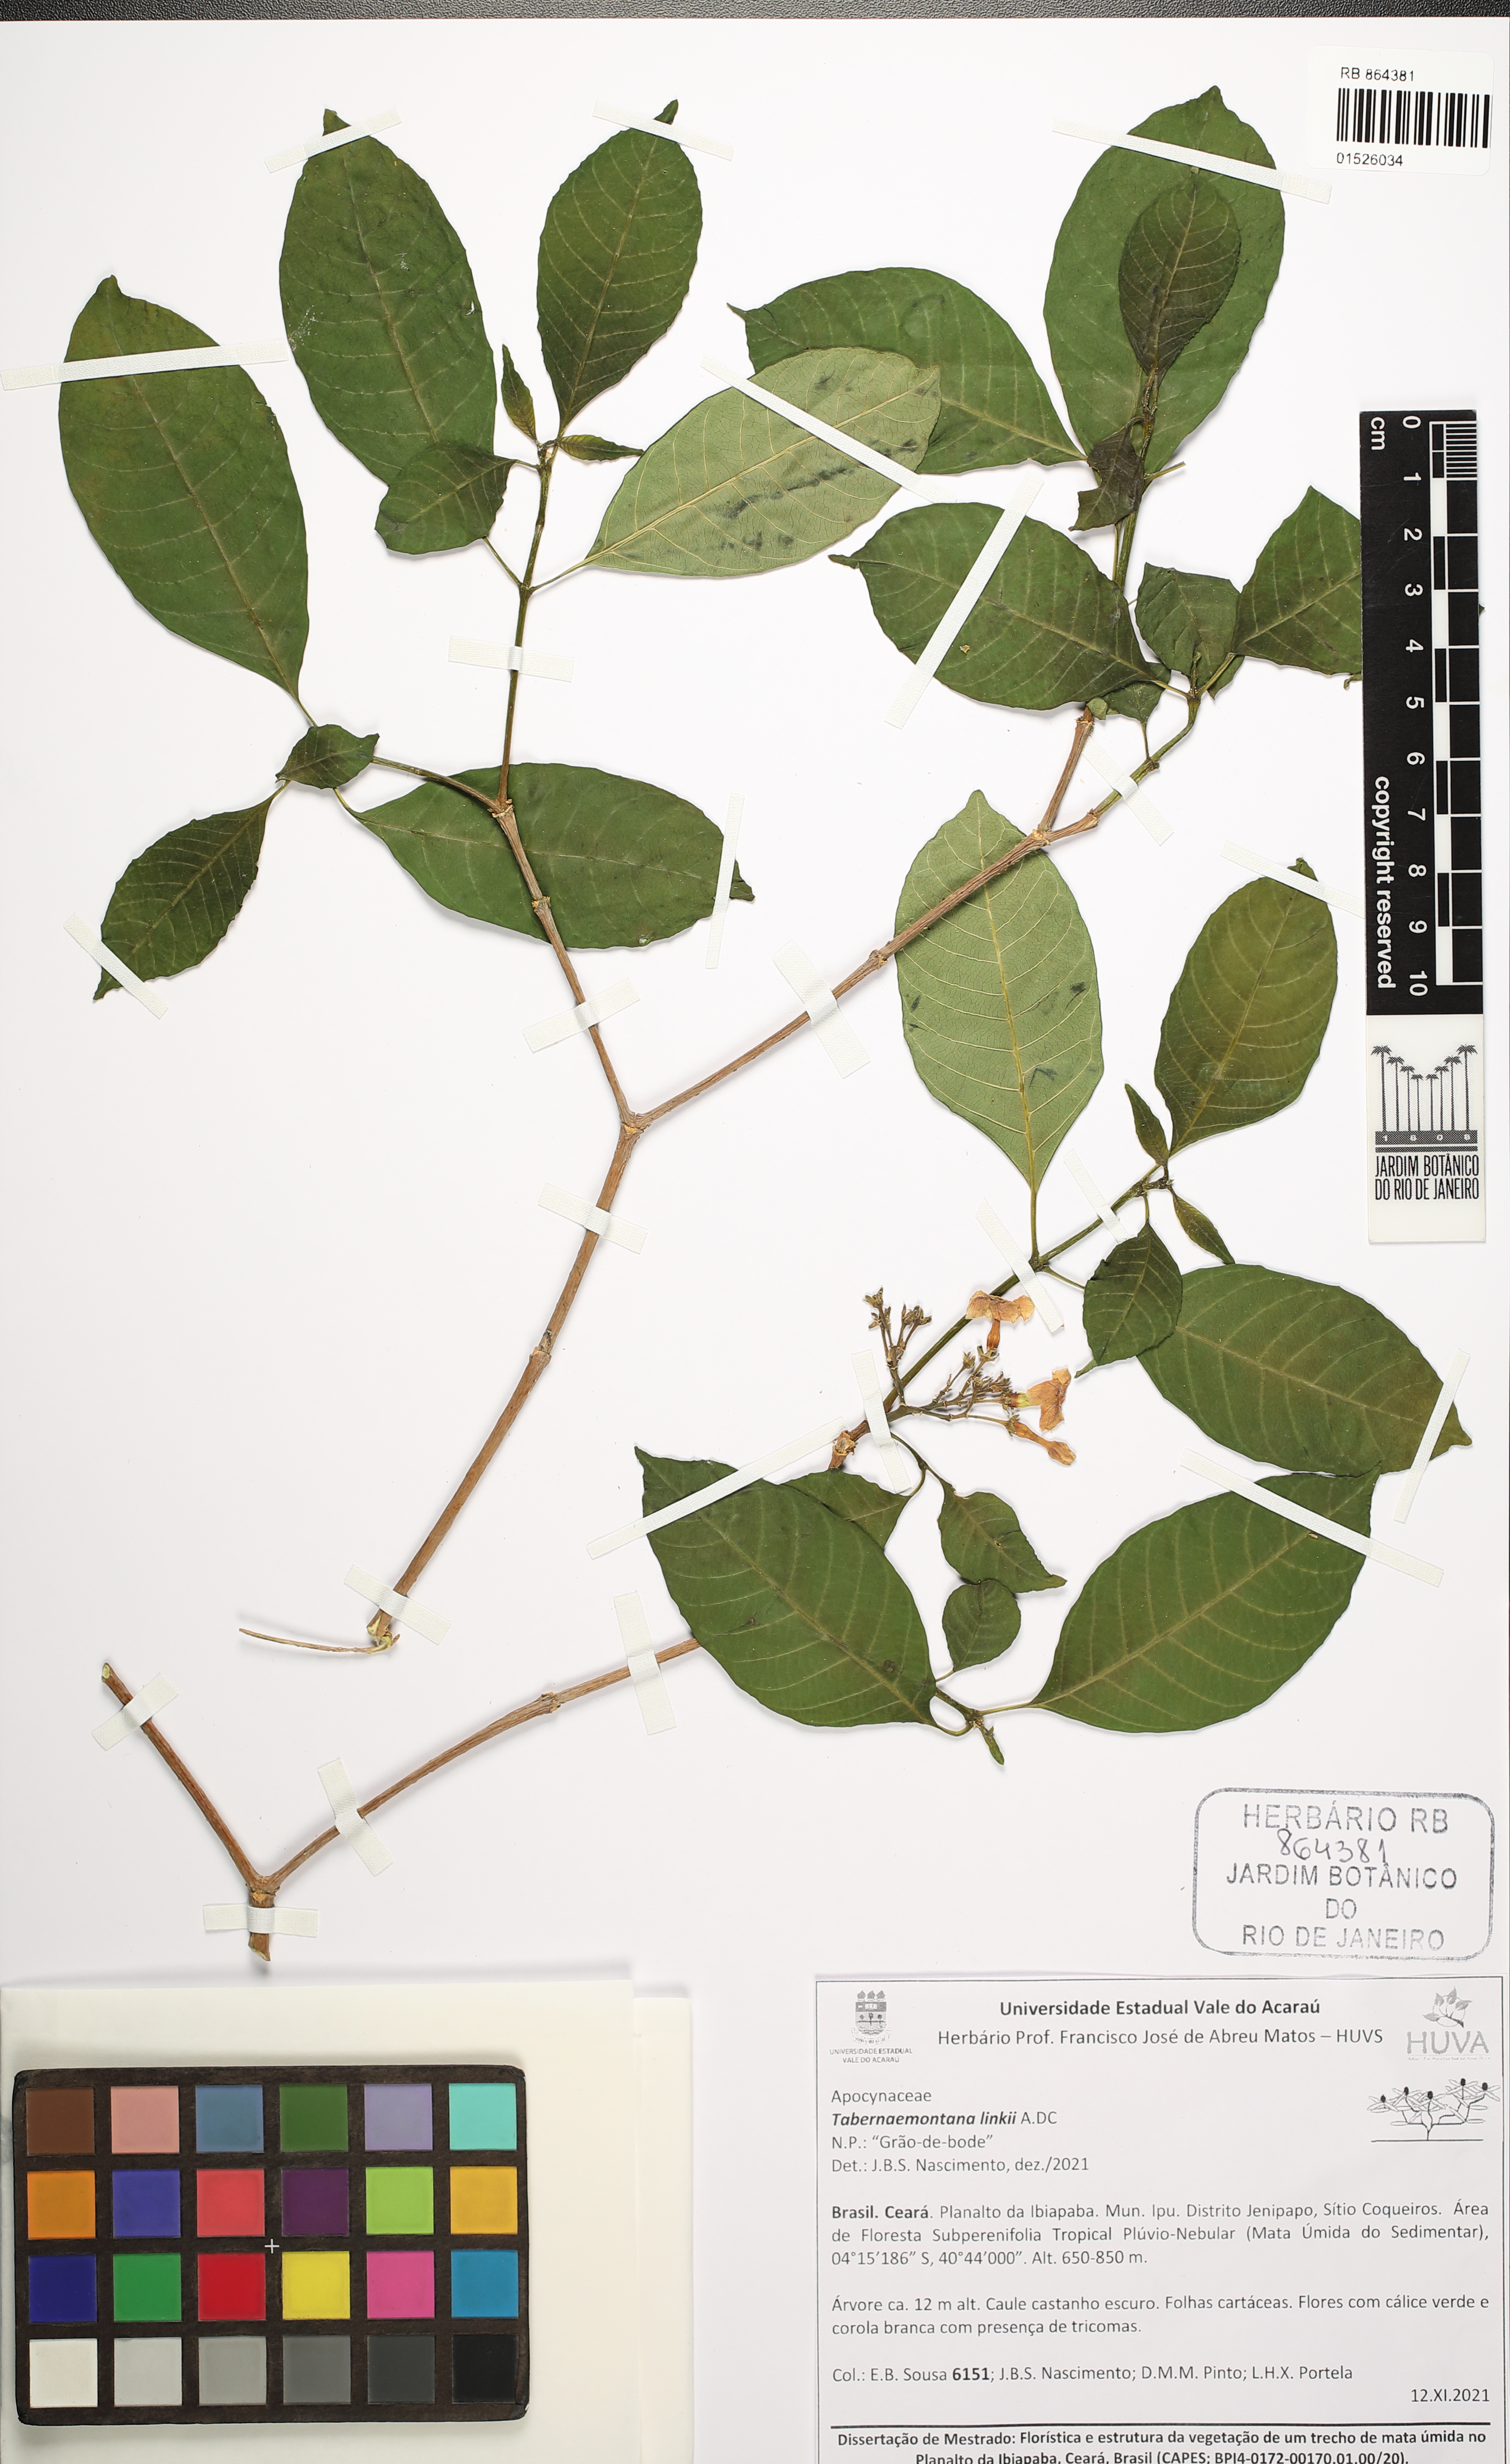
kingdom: Plantae
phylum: Tracheophyta
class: Magnoliopsida
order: Gentianales
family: Apocynaceae
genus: Tabernaemontana
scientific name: Tabernaemontana linkii
